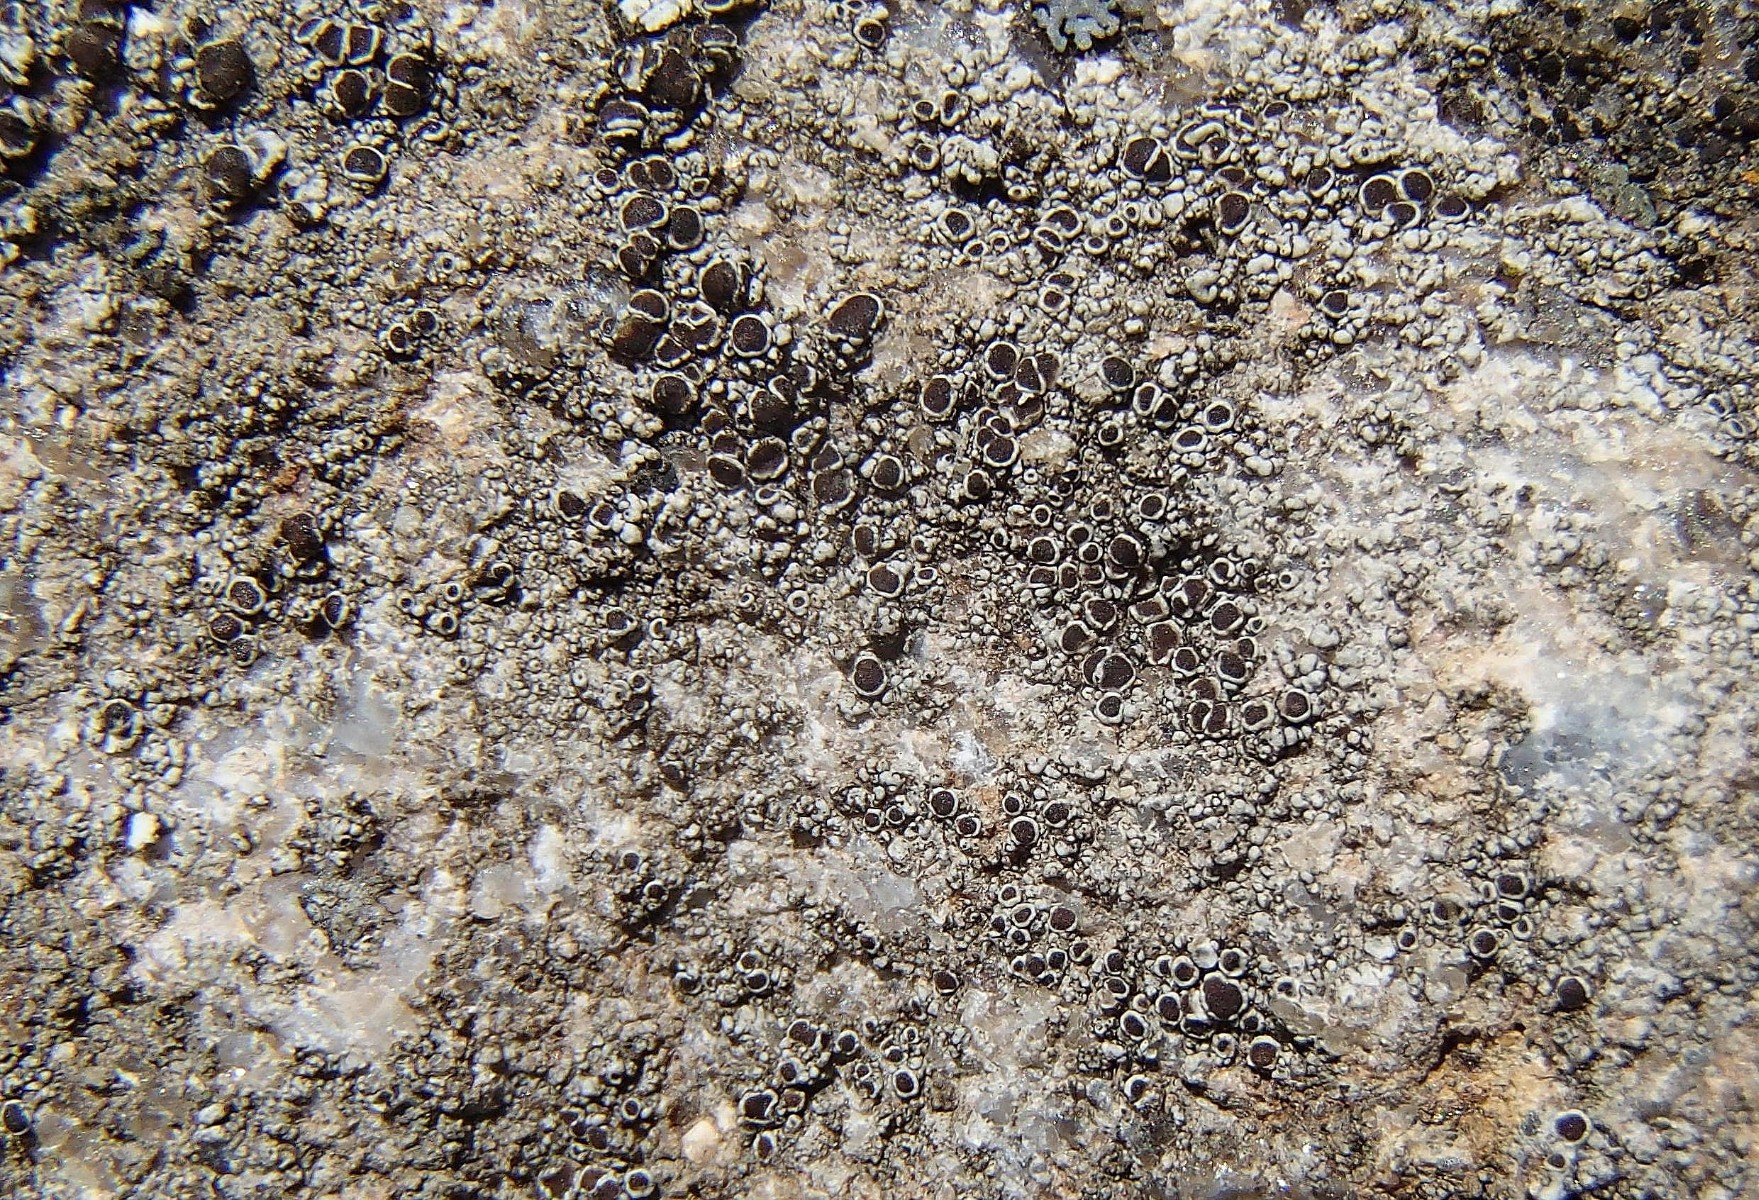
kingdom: Fungi
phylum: Ascomycota
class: Lecanoromycetes
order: Lecanorales
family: Lecanoraceae
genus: Lecanora
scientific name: Lecanora campestris
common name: mur-kantskivelav
